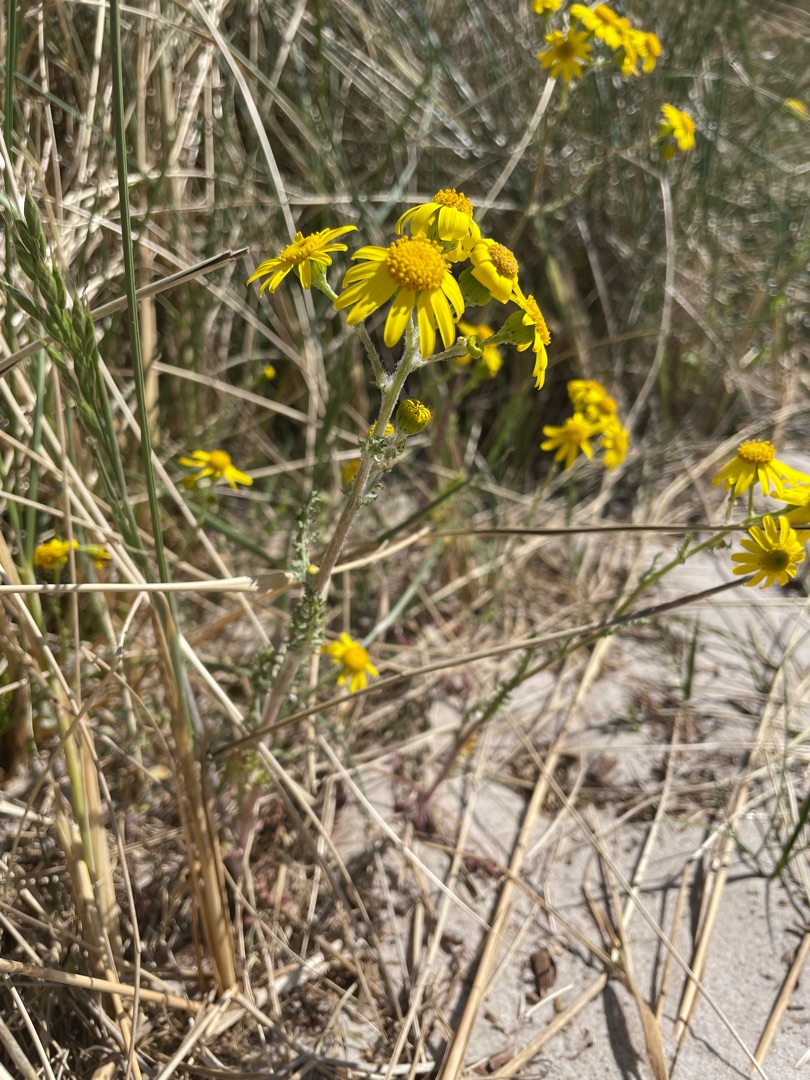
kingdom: Plantae
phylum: Tracheophyta
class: Magnoliopsida
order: Asterales
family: Asteraceae
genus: Senecio
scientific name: Senecio leucanthemifolius
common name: Vår-brandbæger
